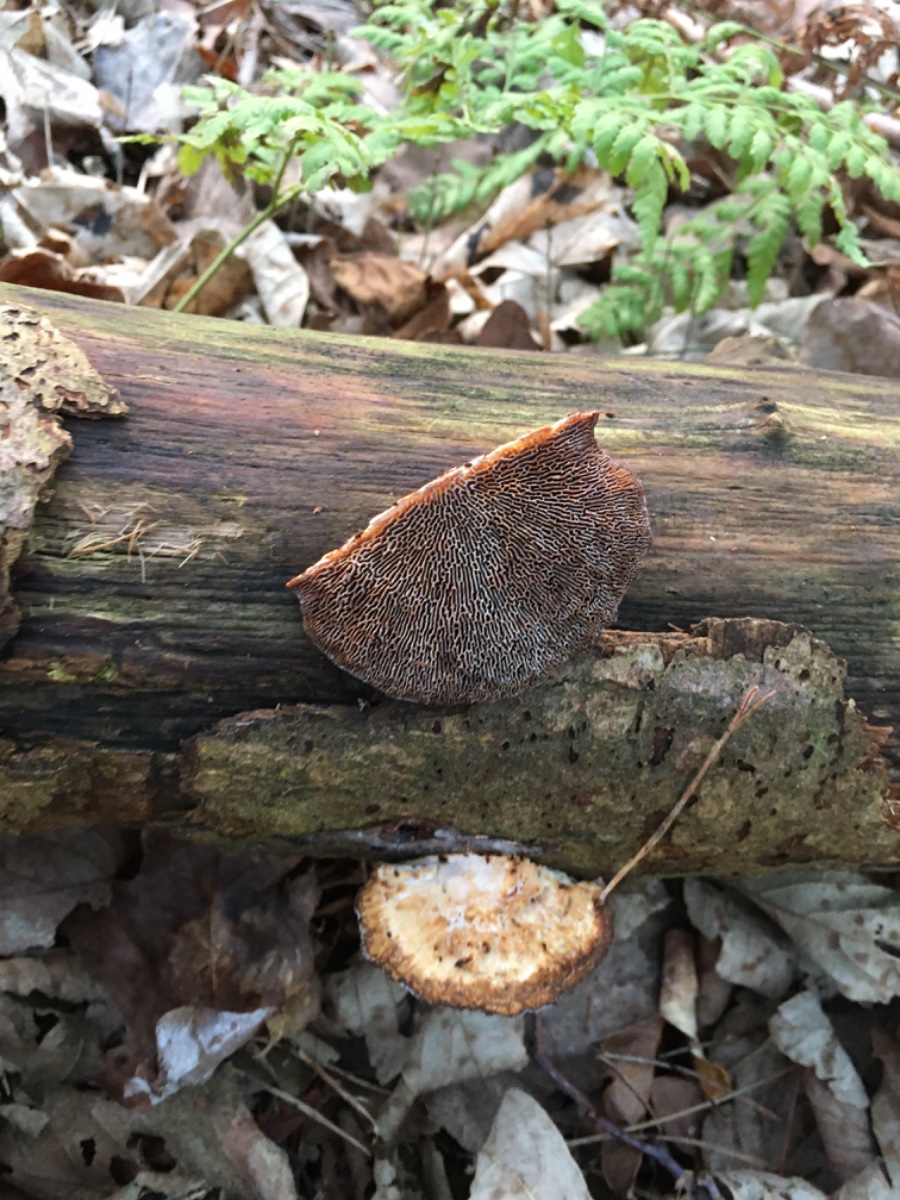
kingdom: Fungi
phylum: Basidiomycota
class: Agaricomycetes
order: Polyporales
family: Polyporaceae
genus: Daedaleopsis
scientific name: Daedaleopsis confragosa
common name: rødmende læderporesvamp
